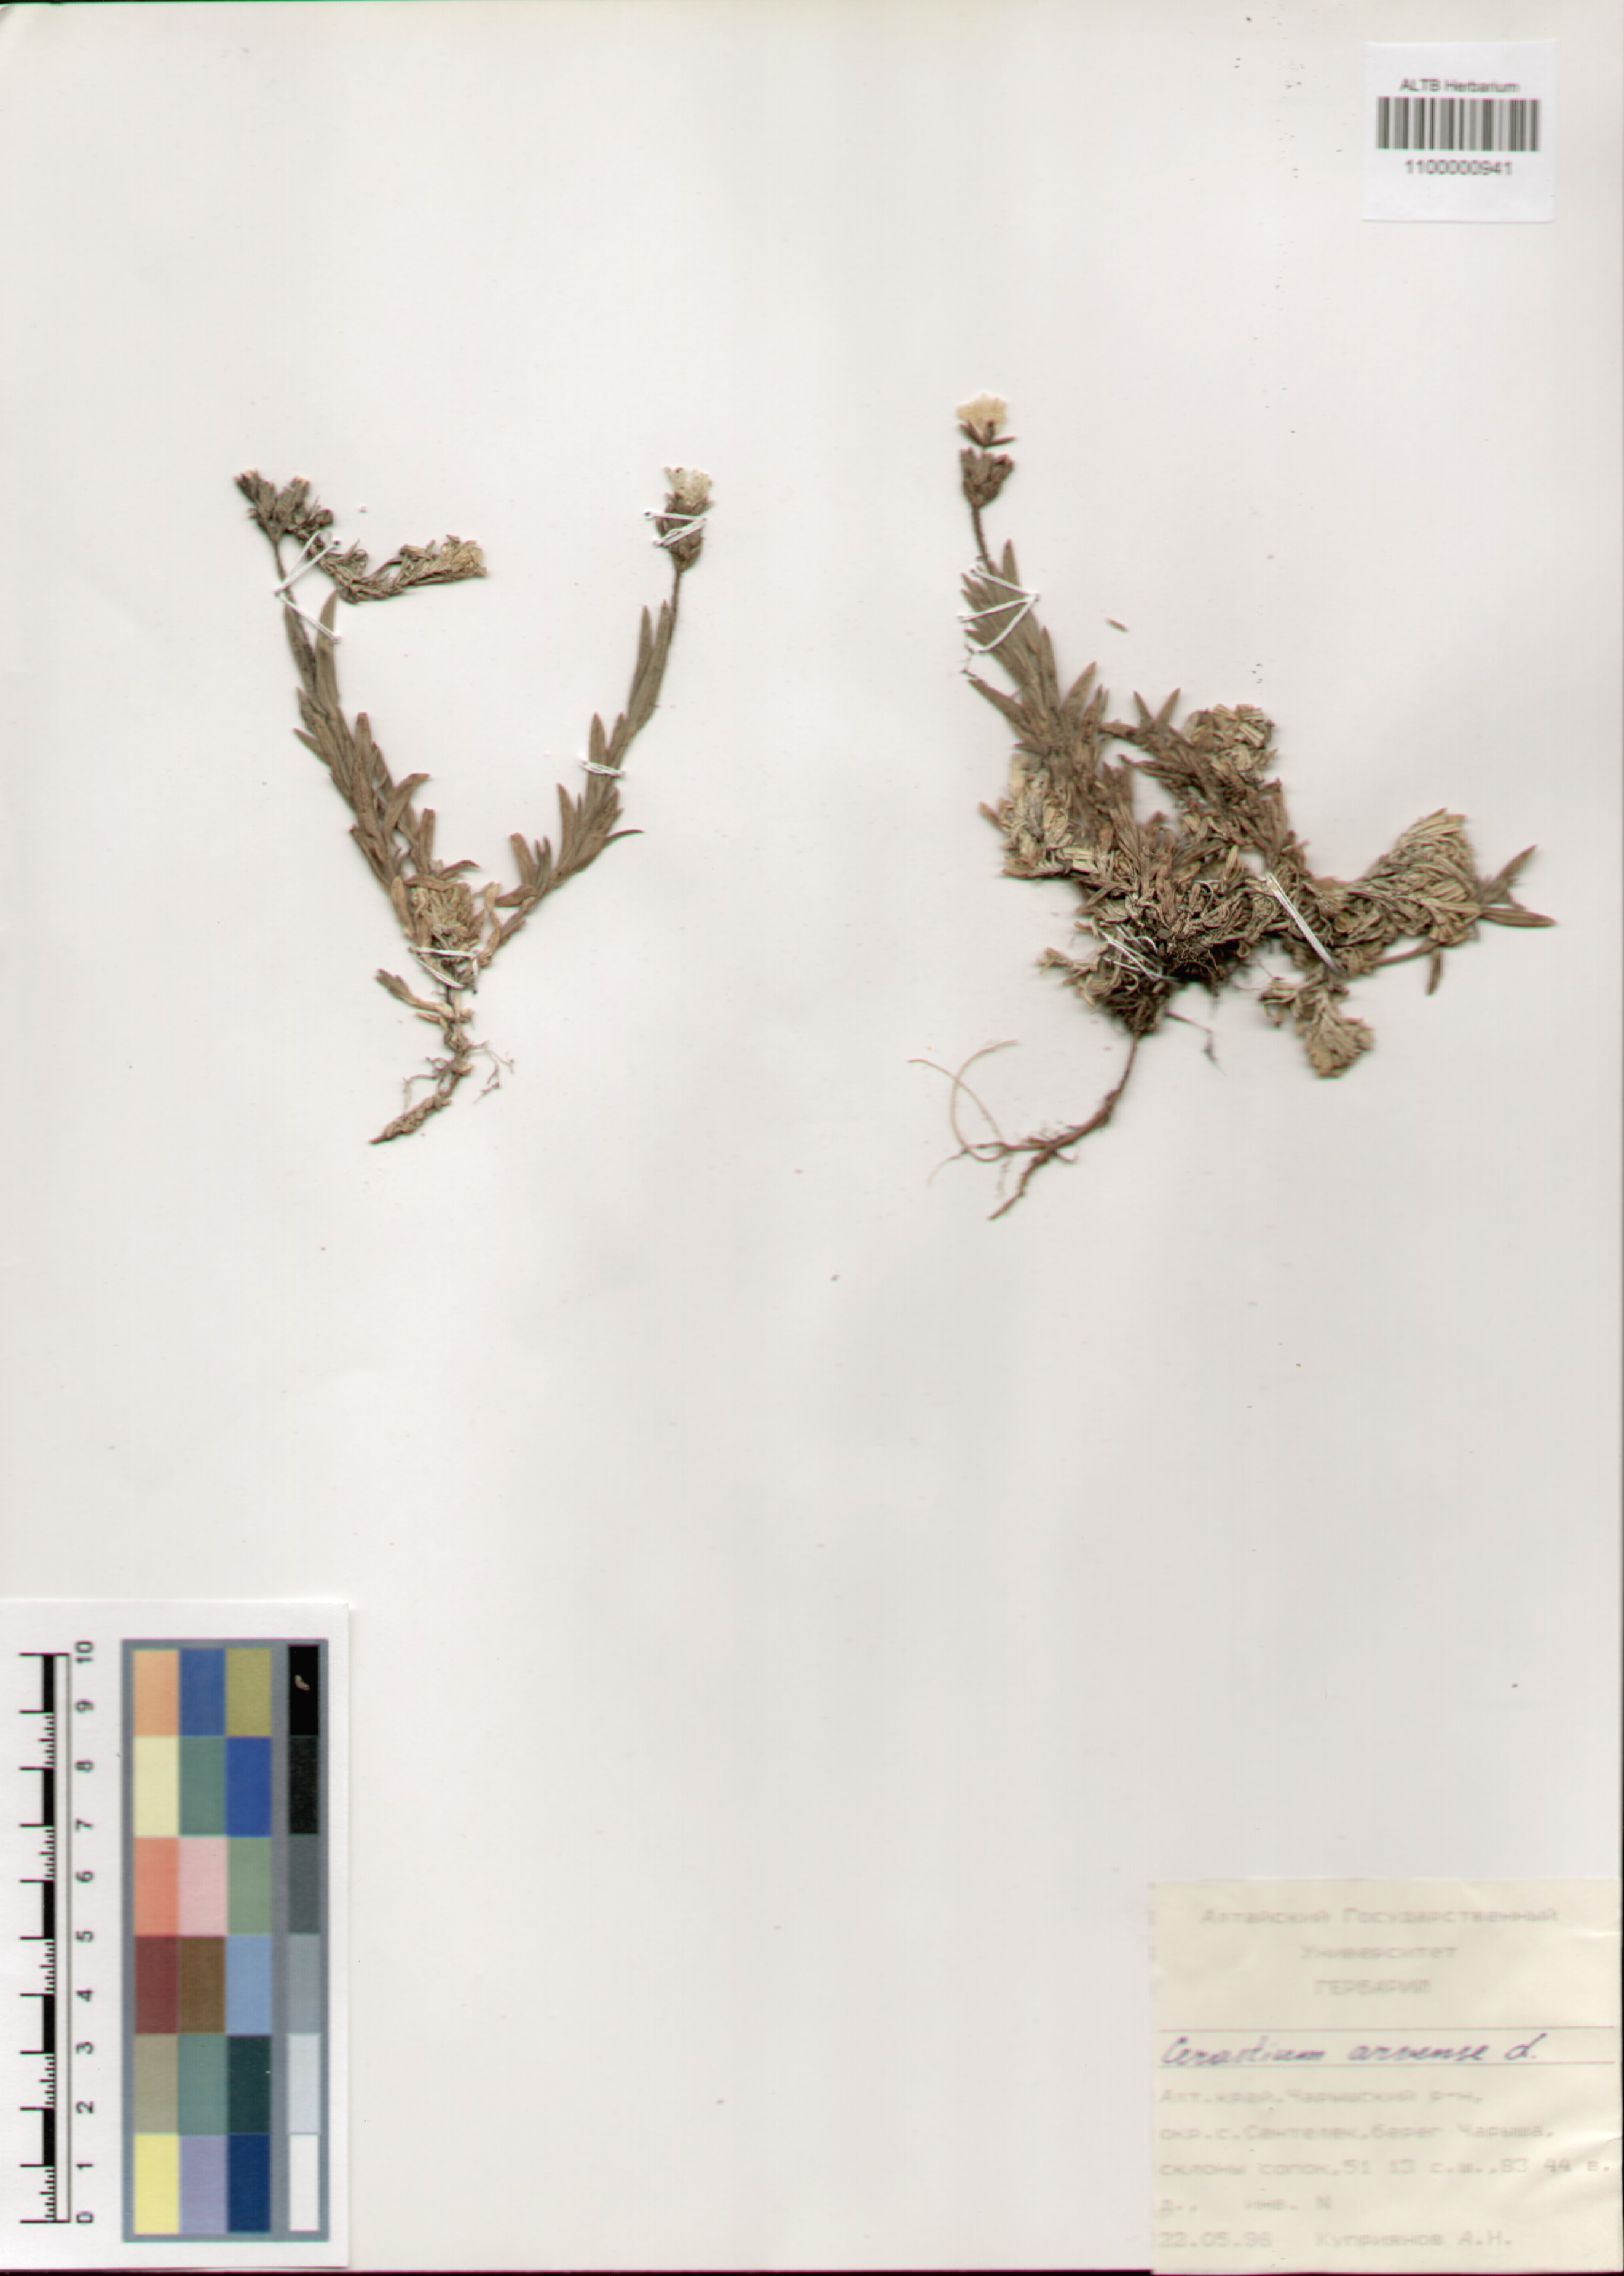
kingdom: Plantae
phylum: Tracheophyta
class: Magnoliopsida
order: Caryophyllales
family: Caryophyllaceae
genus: Cerastium
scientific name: Cerastium arvense
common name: Field mouse-ear
